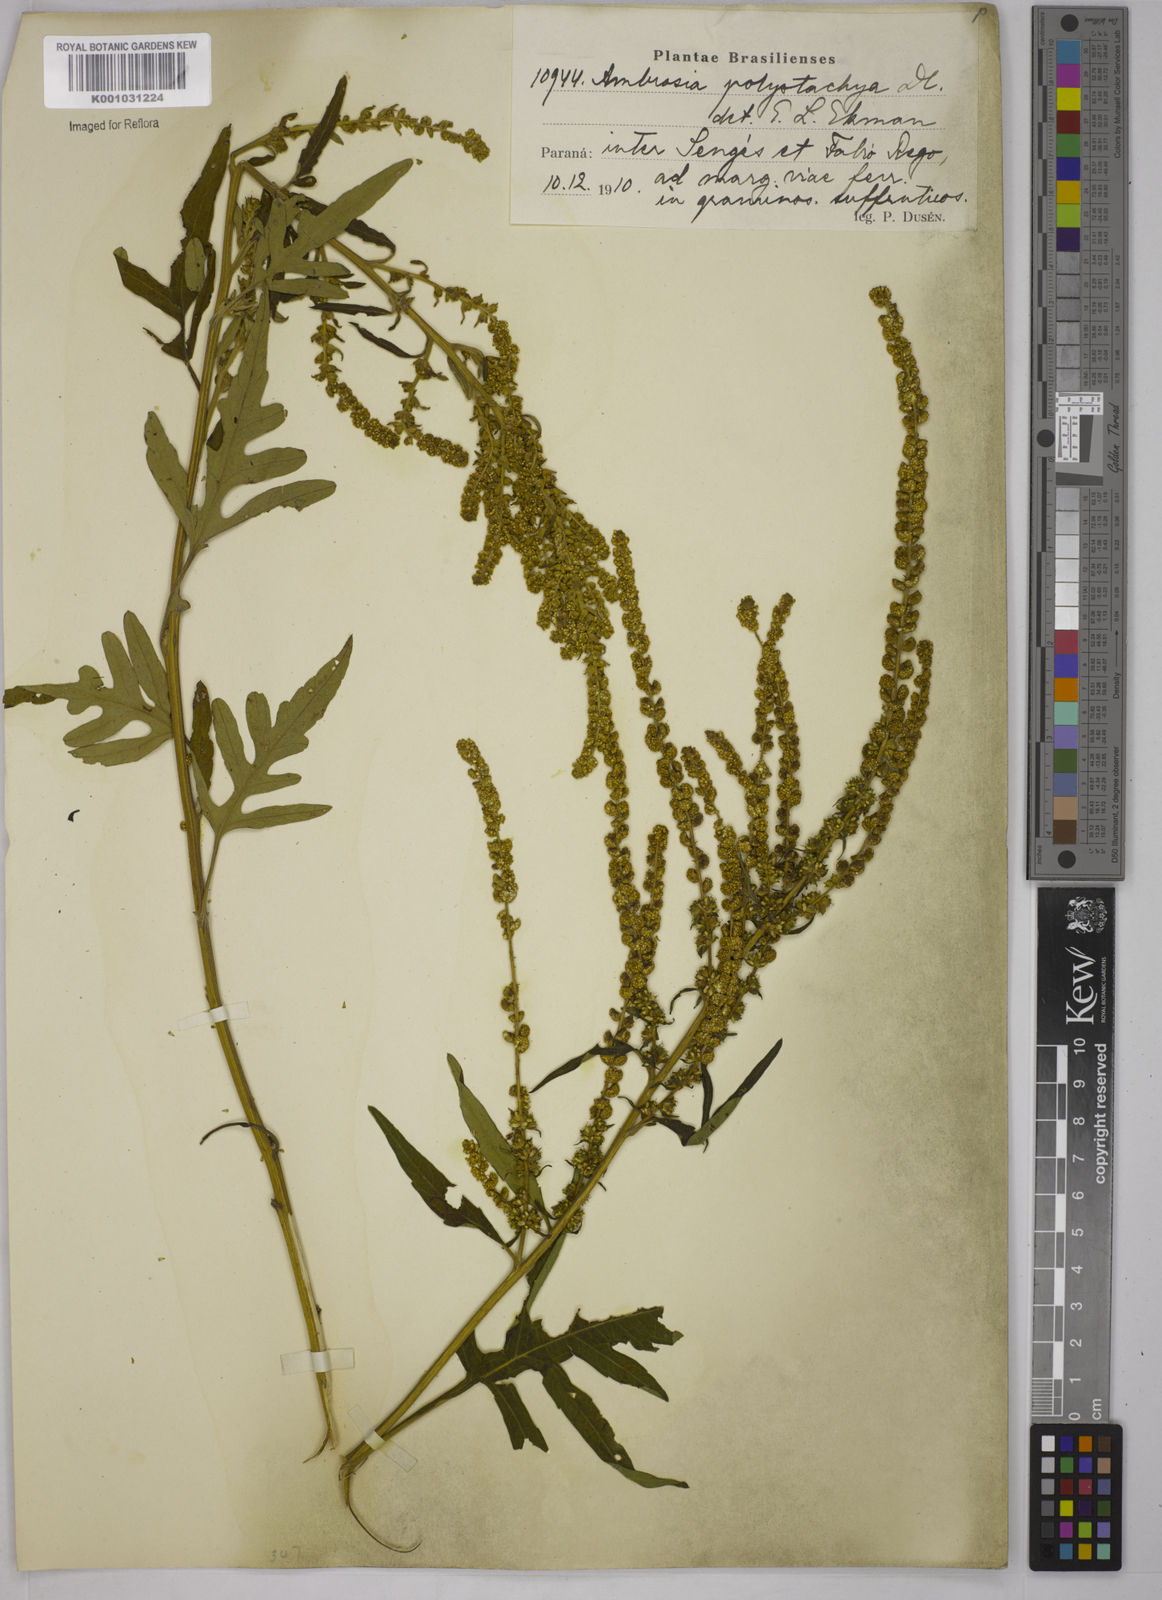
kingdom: Plantae
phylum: Tracheophyta
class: Magnoliopsida
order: Asterales
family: Asteraceae
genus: Ambrosia
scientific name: Ambrosia polystachya
